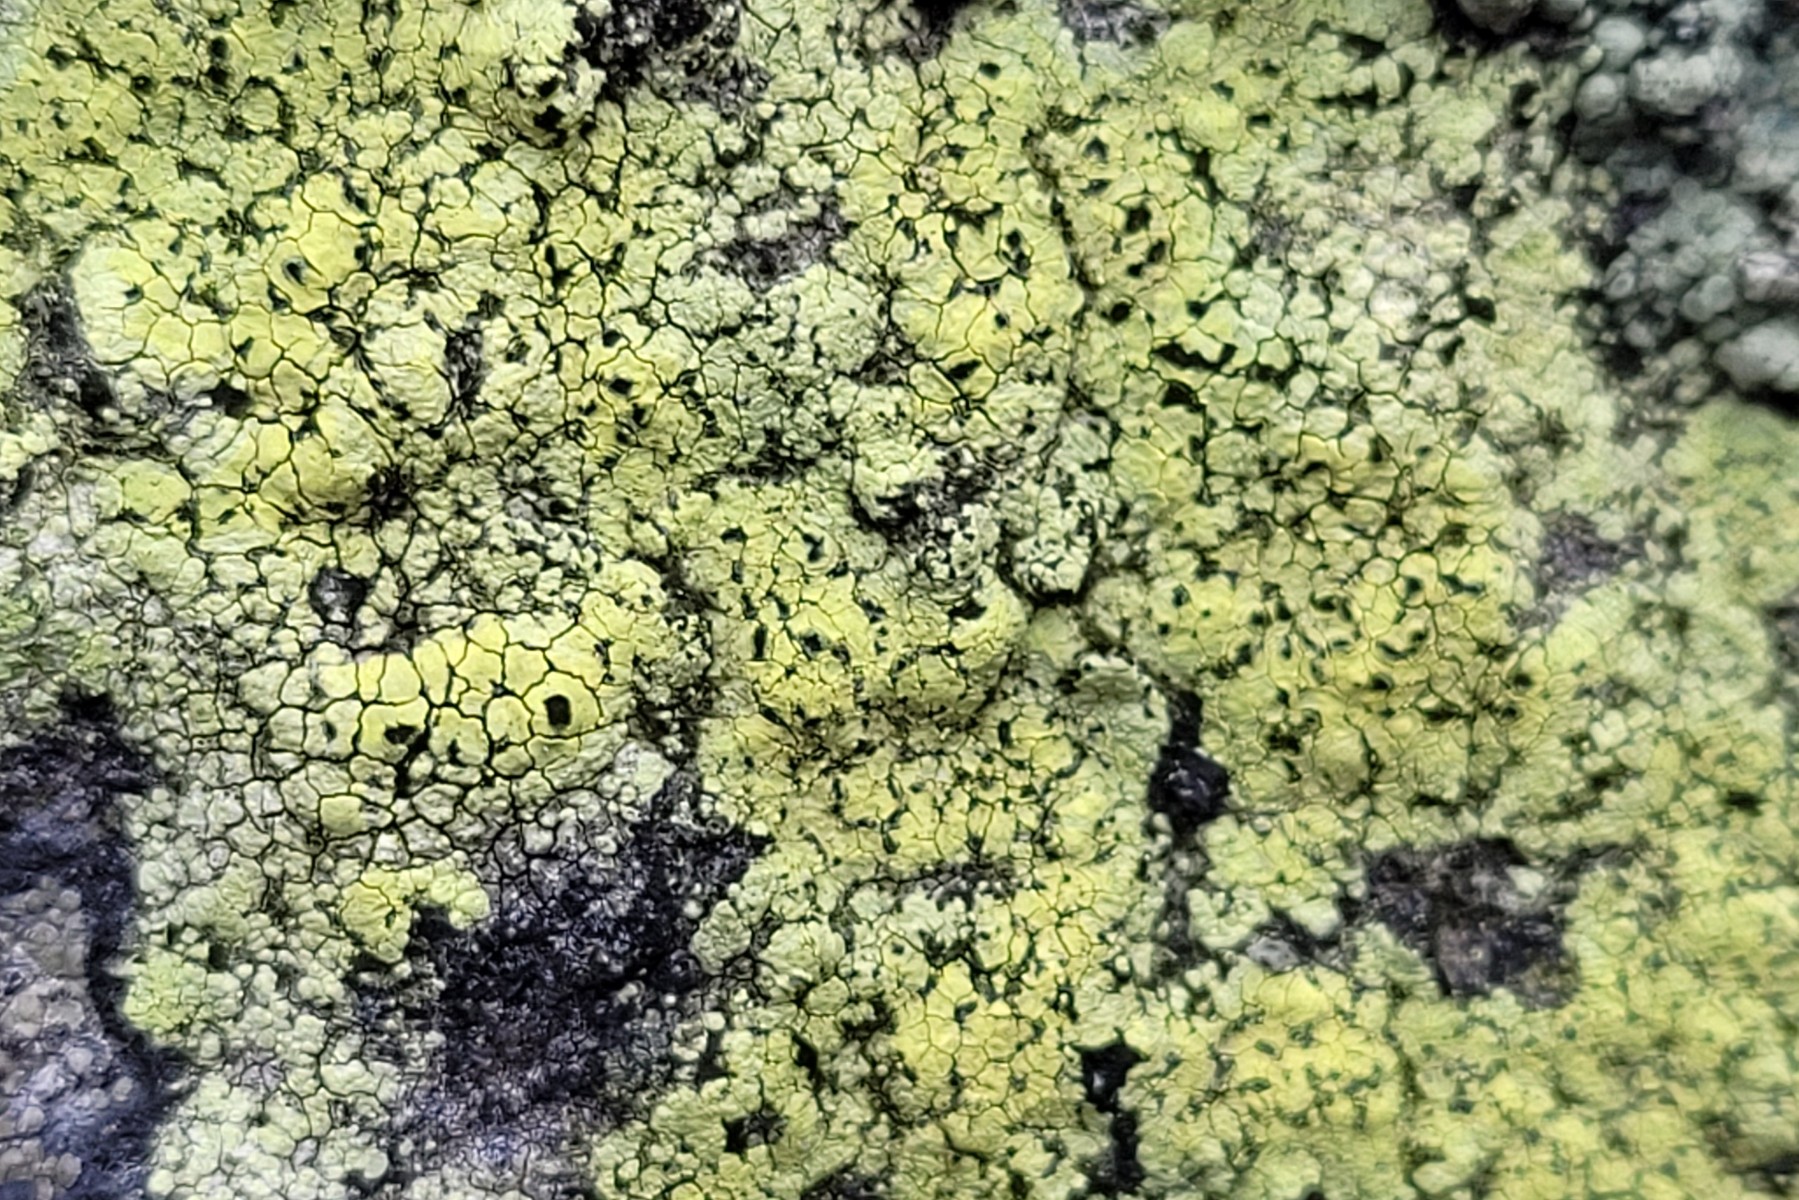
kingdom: Fungi
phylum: Ascomycota
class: Lecanoromycetes
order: Rhizocarpales
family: Rhizocarpaceae
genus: Rhizocarpon
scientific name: Rhizocarpon geographicum
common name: gulgrøn landkortlav
